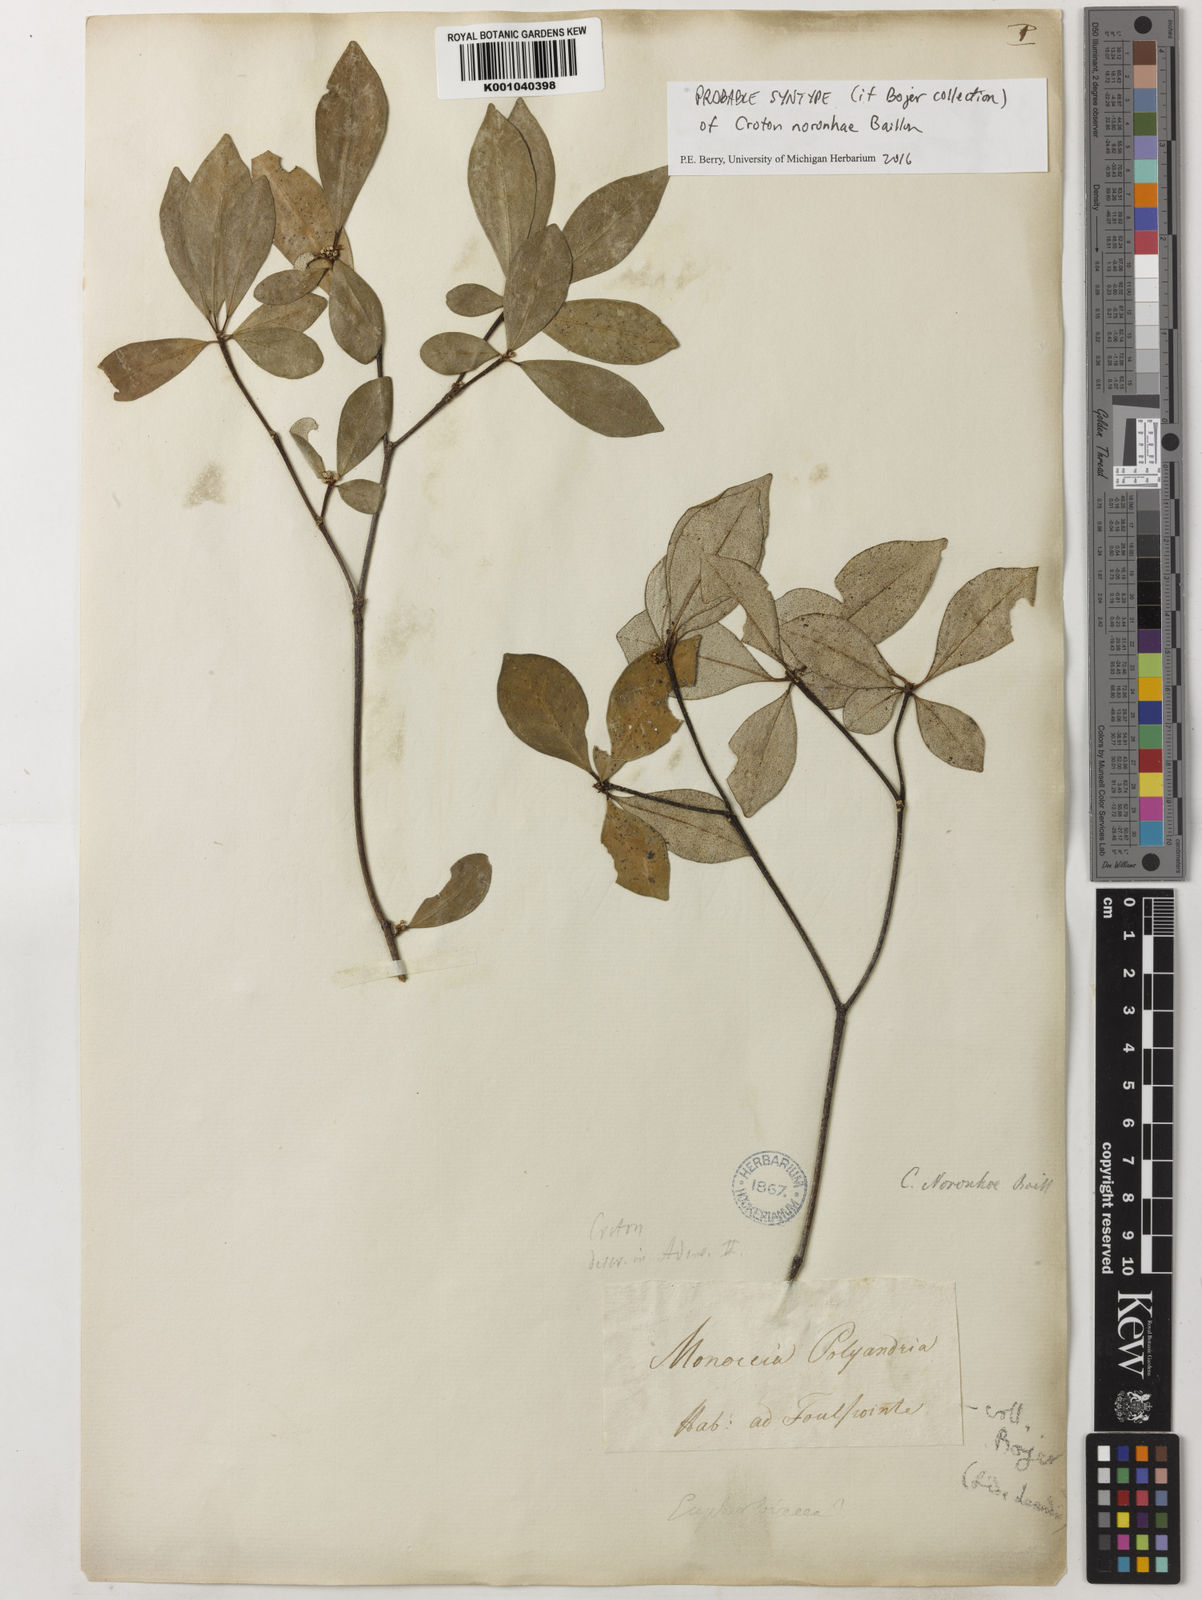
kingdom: Plantae
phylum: Tracheophyta
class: Magnoliopsida
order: Malpighiales
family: Euphorbiaceae
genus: Croton
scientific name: Croton noronhae
